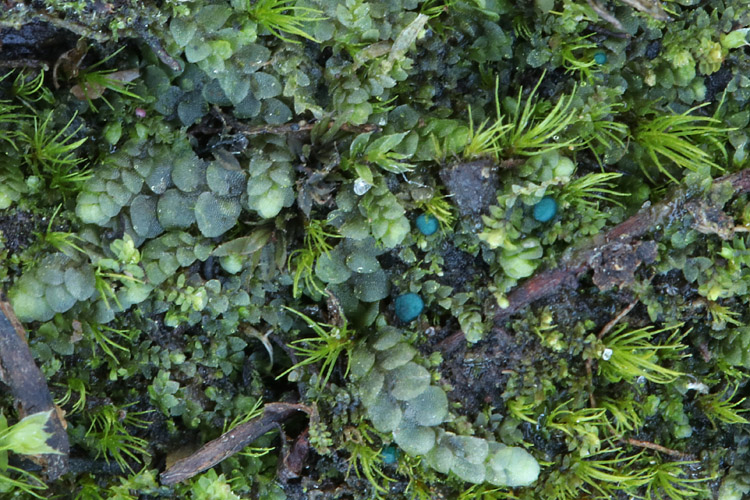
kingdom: Fungi
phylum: Ascomycota
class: Leotiomycetes
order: Leotiales
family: Mniaeciaceae
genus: Mniaecia
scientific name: Mniaecia jungermanniae
